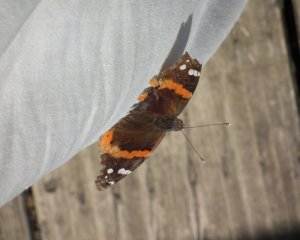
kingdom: Animalia
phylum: Arthropoda
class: Insecta
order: Lepidoptera
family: Nymphalidae
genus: Vanessa
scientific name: Vanessa atalanta
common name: Red Admiral
